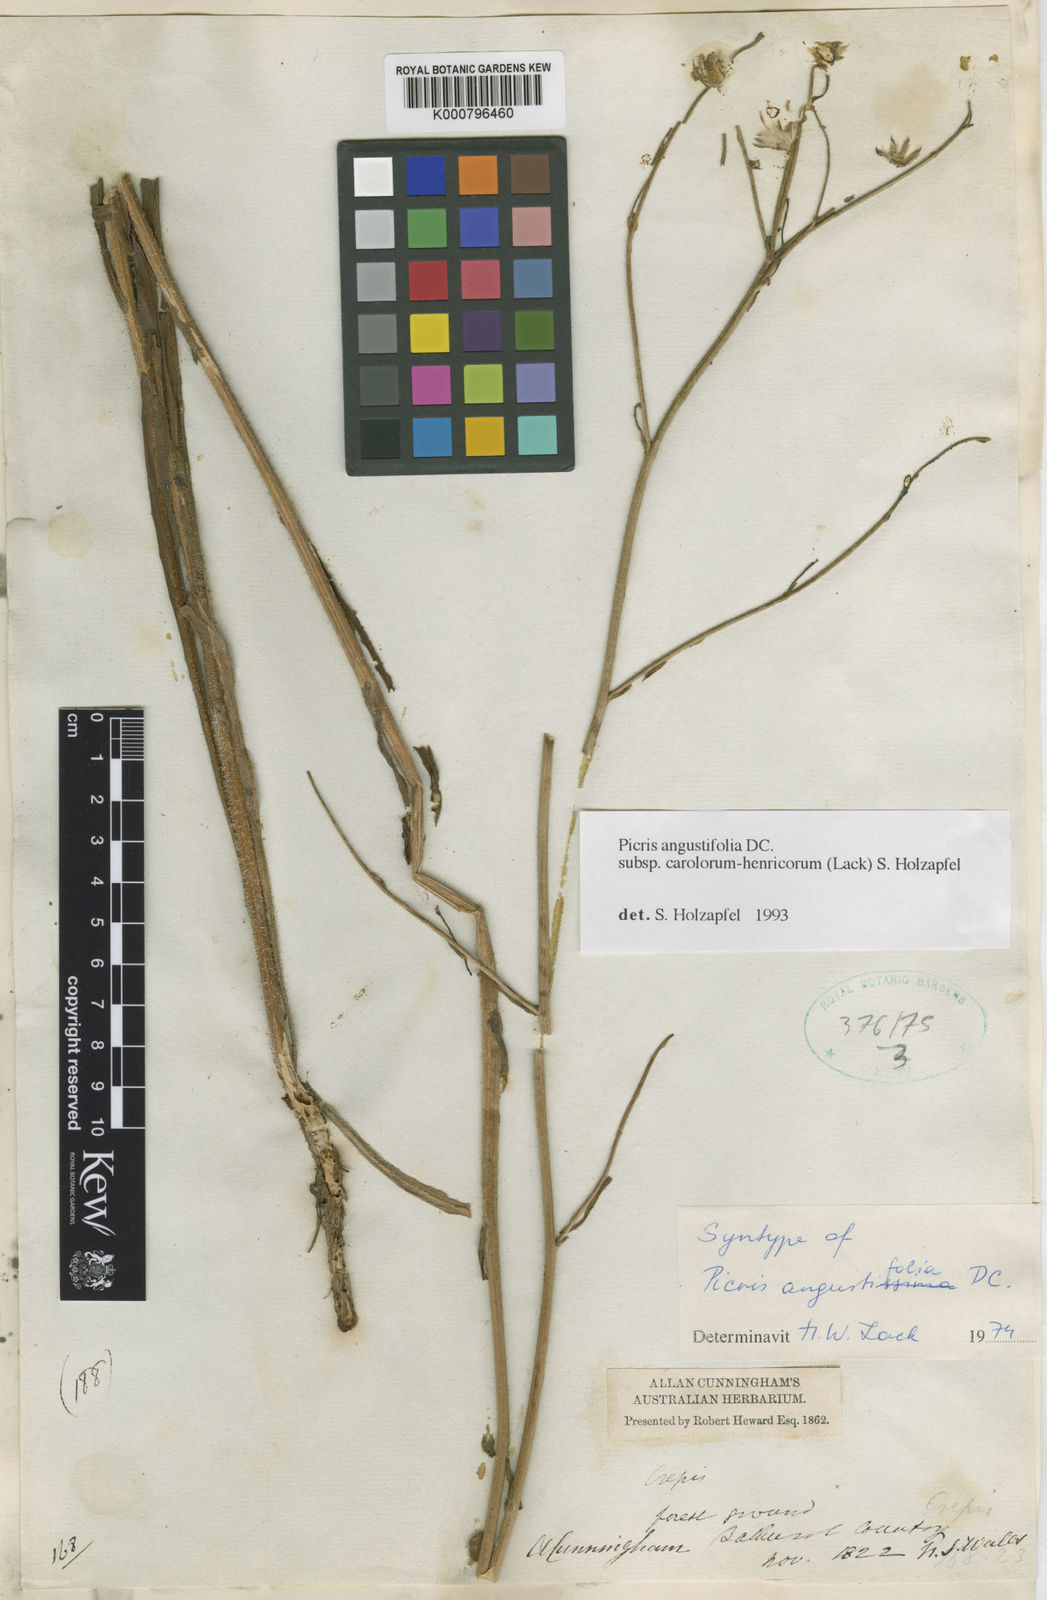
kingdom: Plantae
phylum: Tracheophyta
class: Magnoliopsida
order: Asterales
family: Asteraceae
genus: Picris
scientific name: Picris angustifolia
